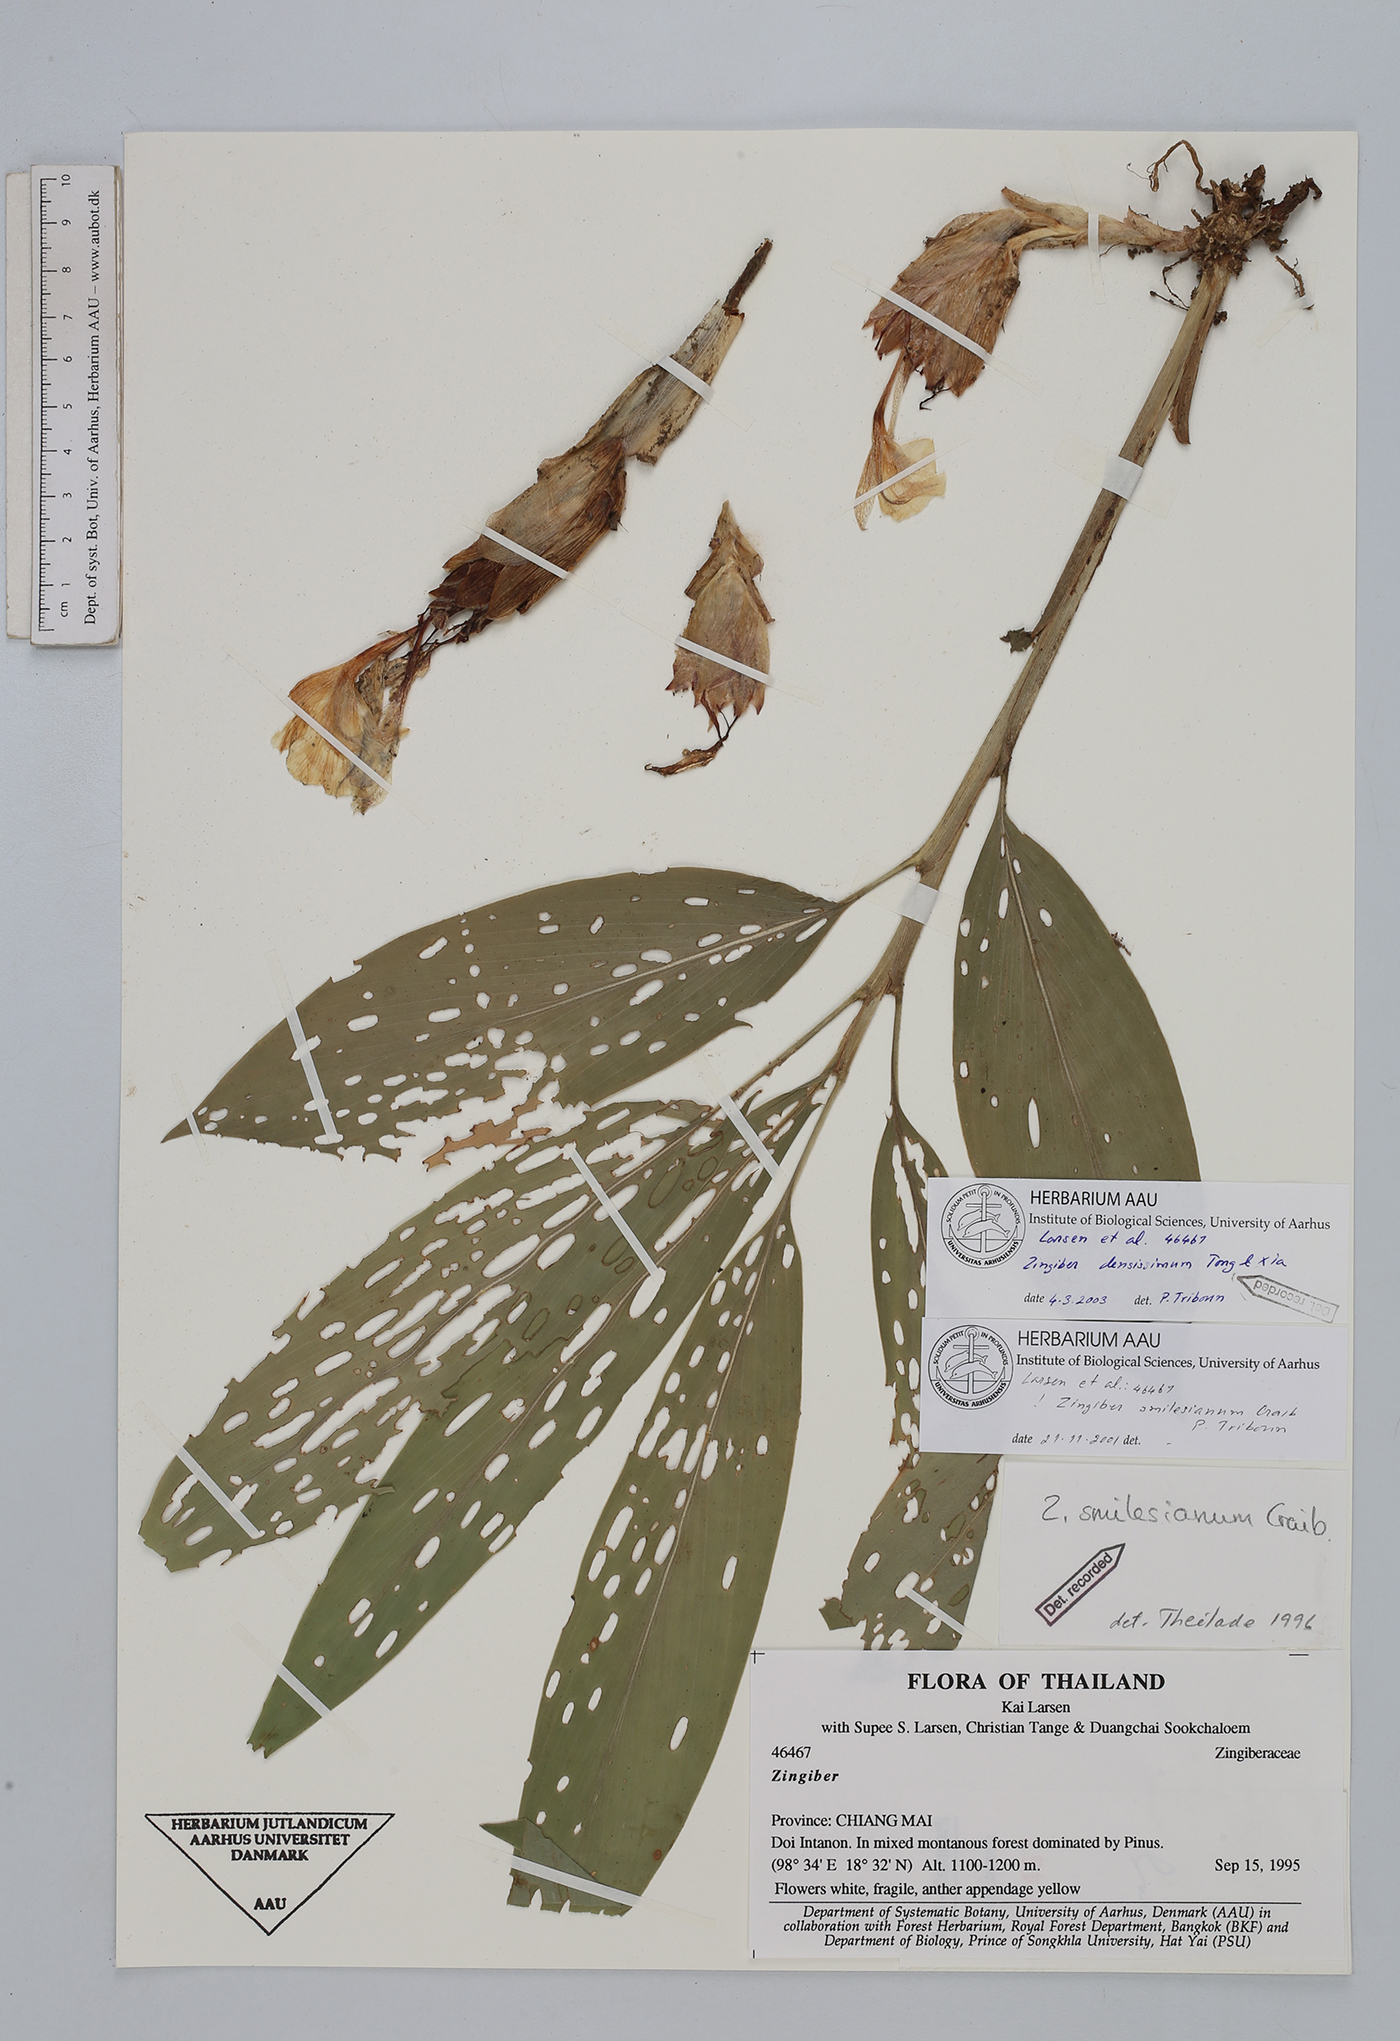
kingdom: Plantae
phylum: Tracheophyta
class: Liliopsida
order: Zingiberales
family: Zingiberaceae
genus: Zingiber
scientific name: Zingiber densissimum
